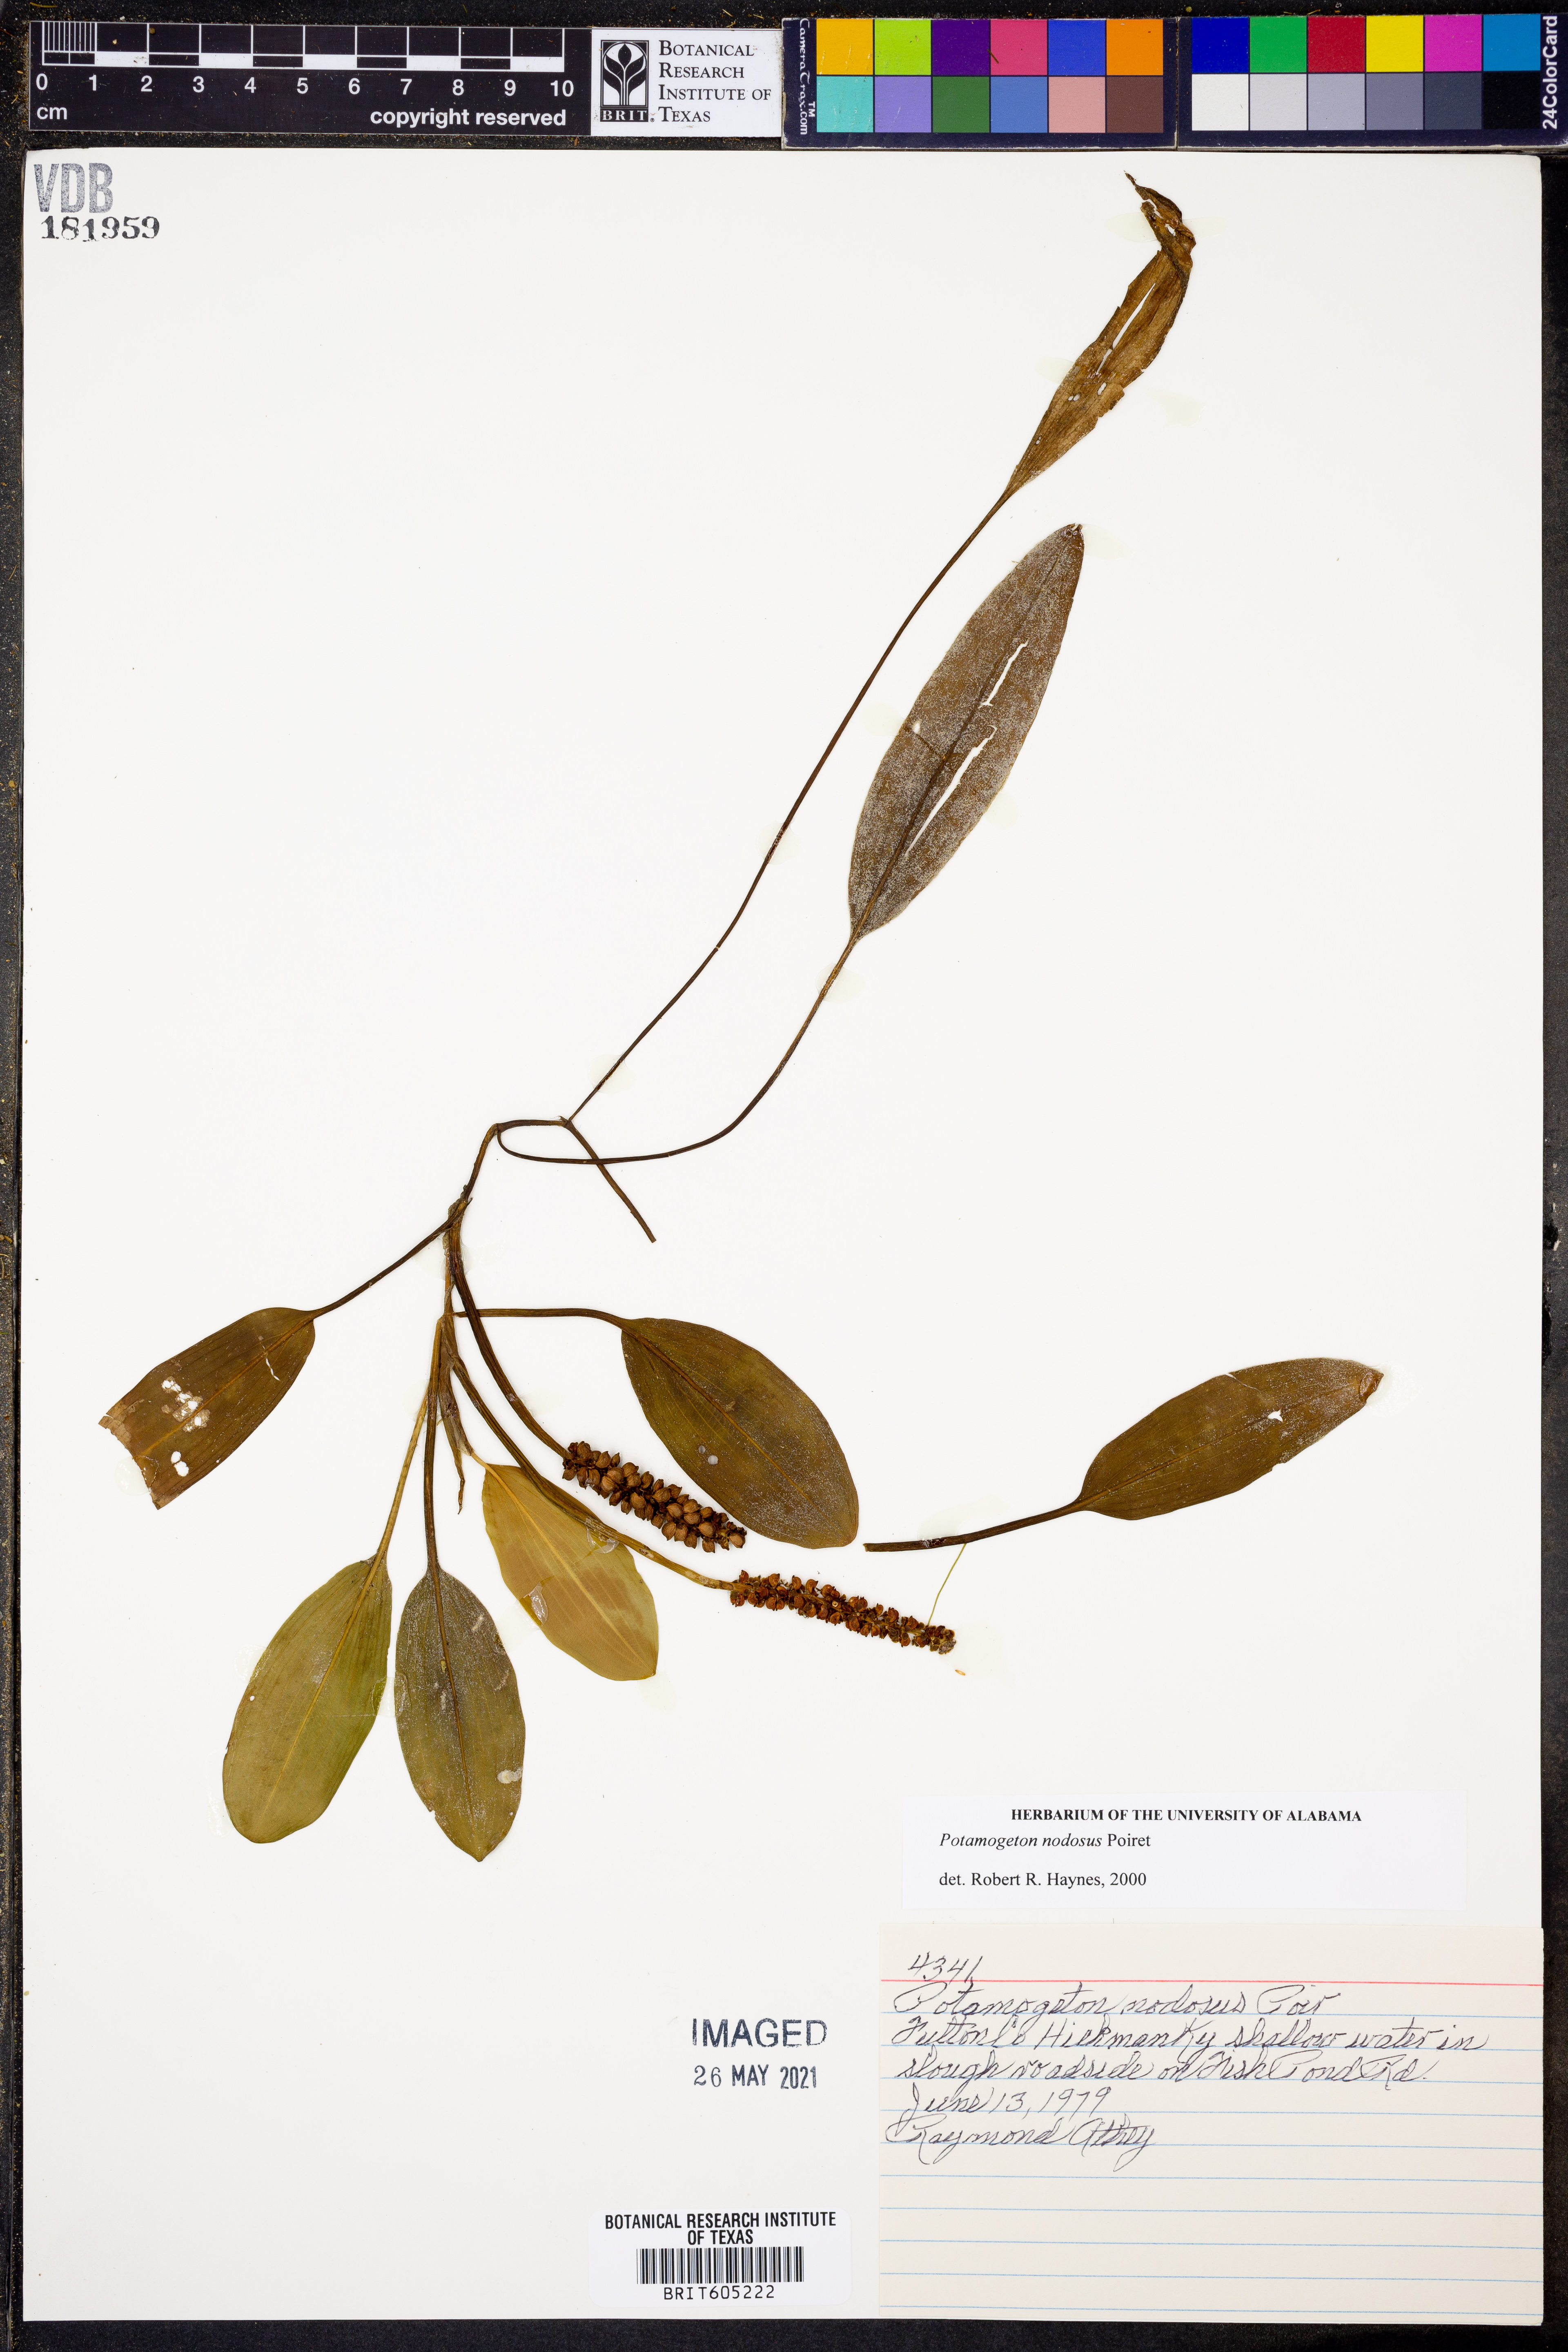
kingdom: Plantae
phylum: Tracheophyta
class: Liliopsida
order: Alismatales
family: Potamogetonaceae
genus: Potamogeton
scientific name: Potamogeton nodosus
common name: Loddon pondweed
